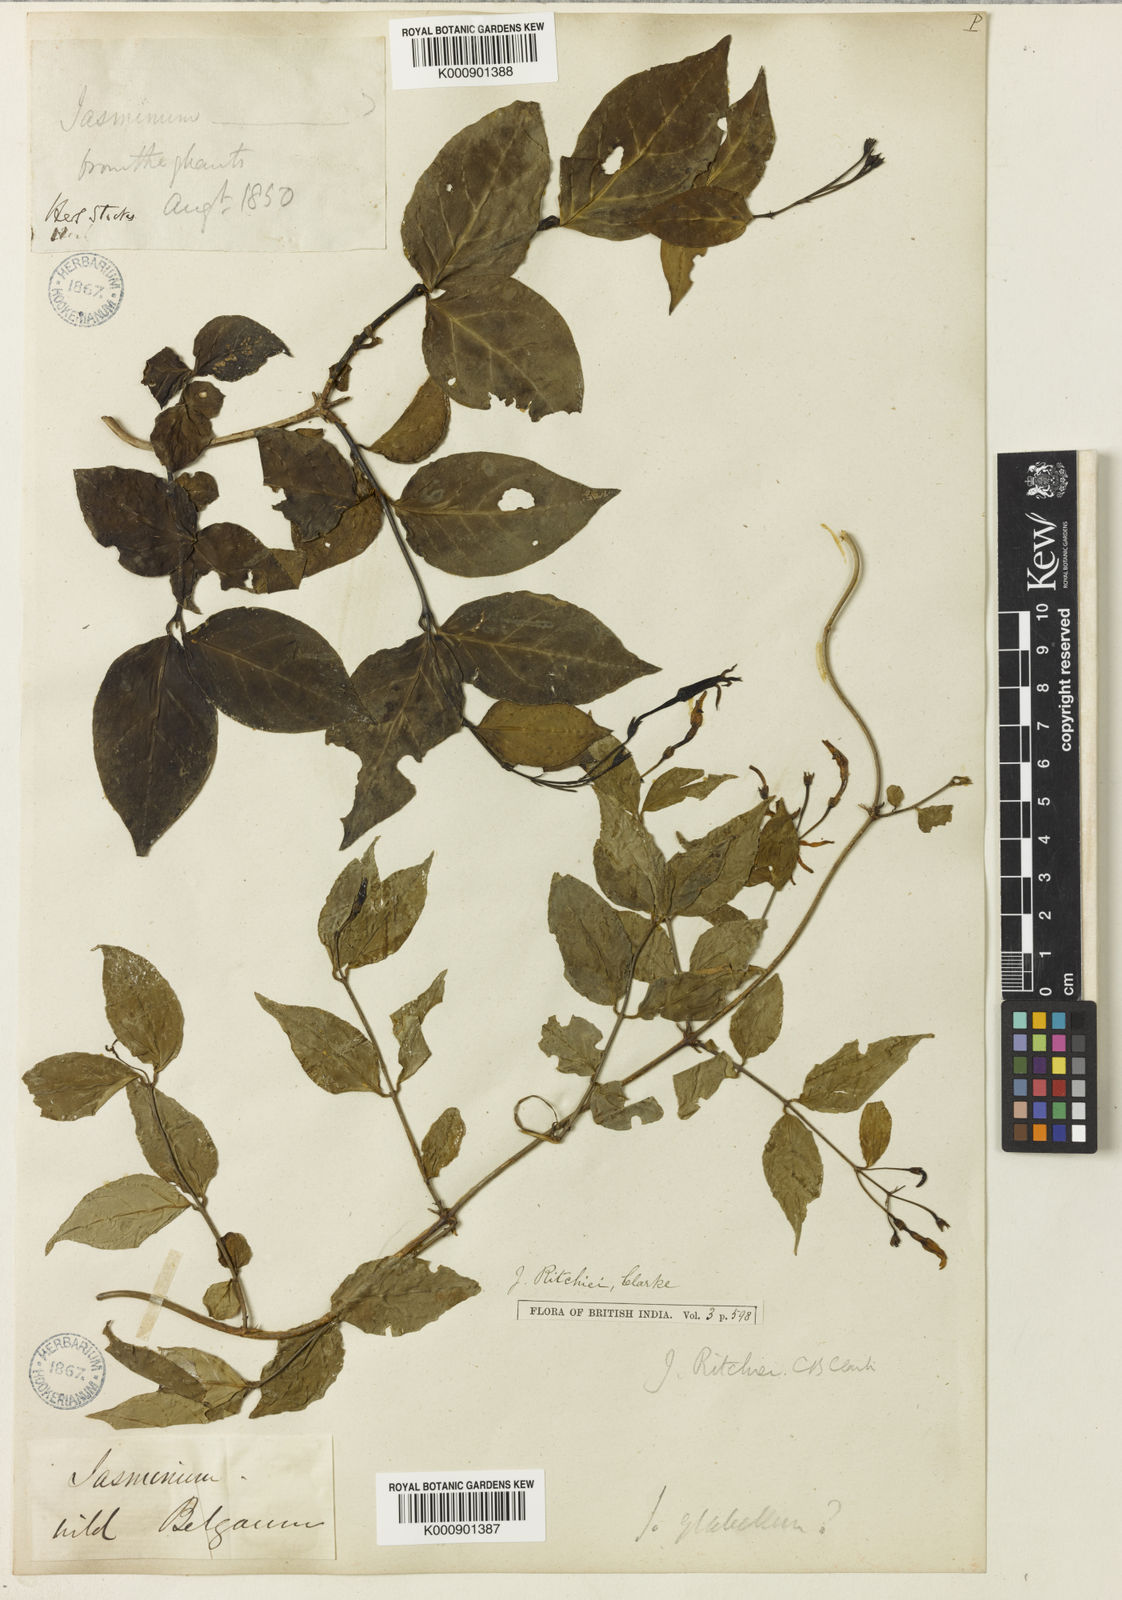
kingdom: Plantae
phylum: Tracheophyta
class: Magnoliopsida
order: Lamiales
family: Oleaceae
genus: Jasminum
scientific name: Jasminum ritchiei
